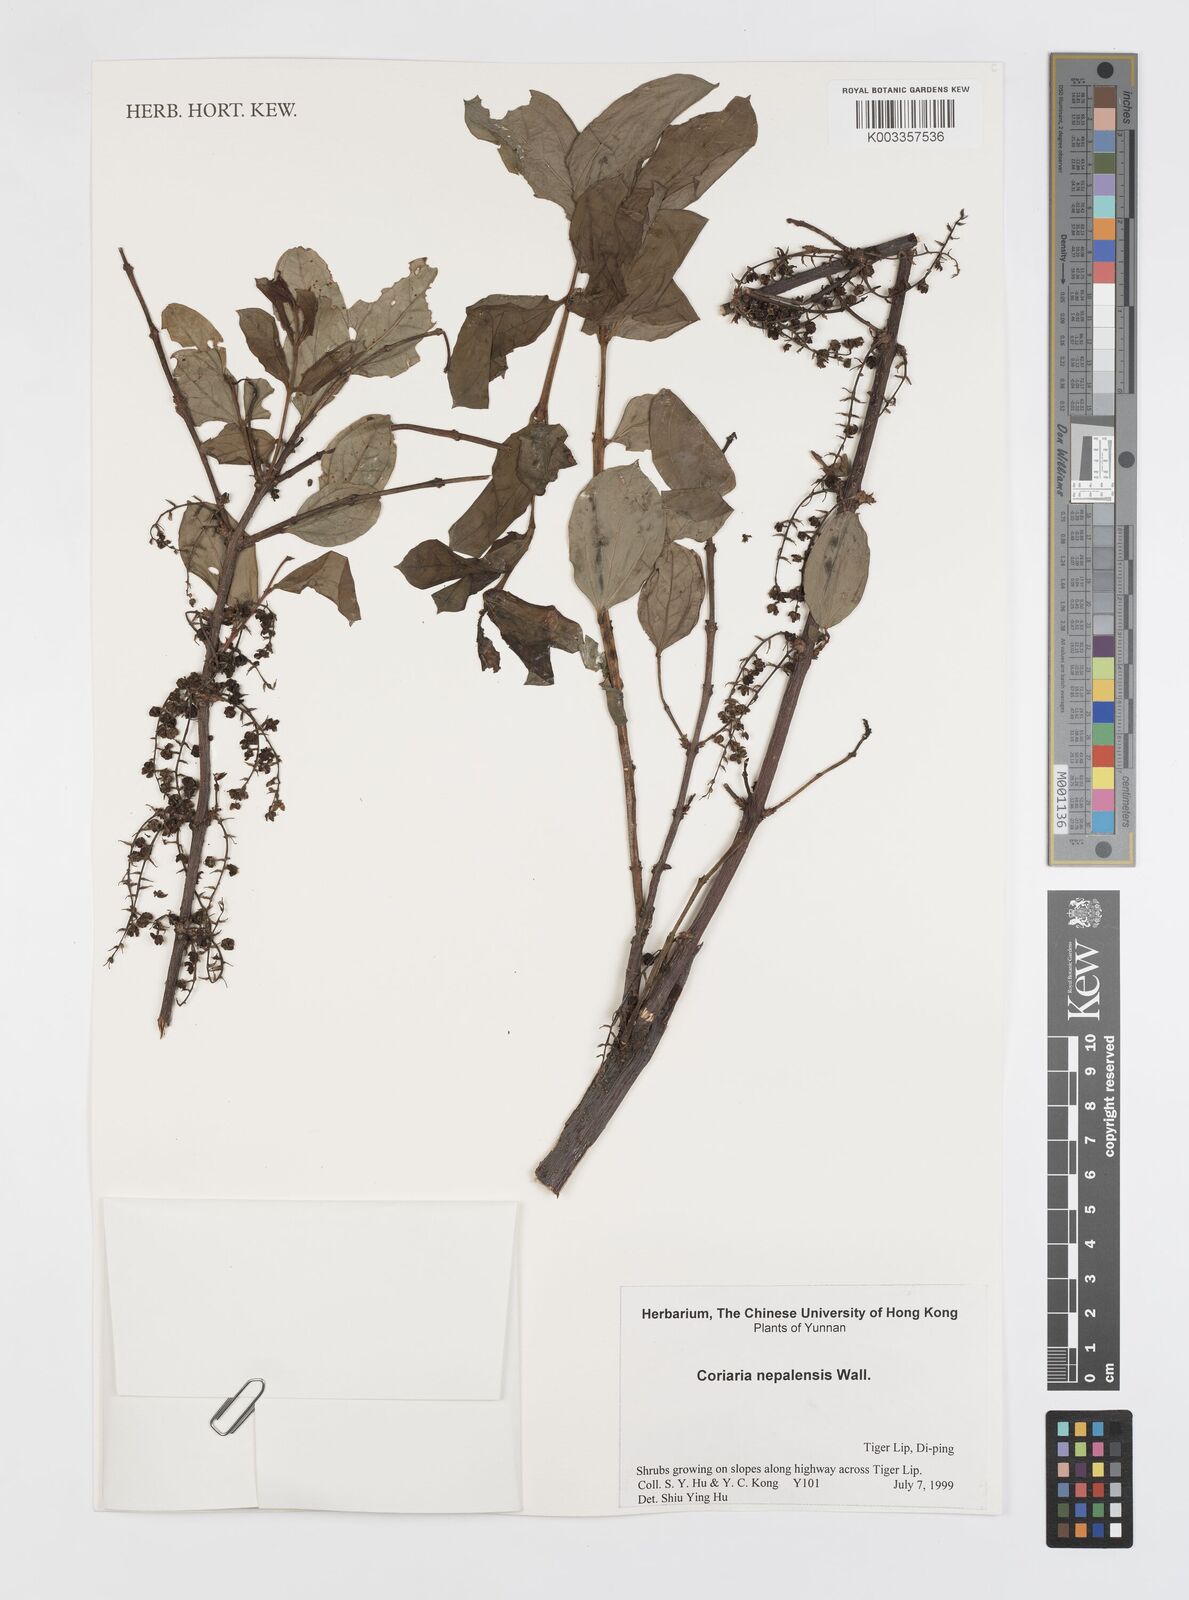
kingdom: Plantae
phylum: Tracheophyta
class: Magnoliopsida
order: Cucurbitales
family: Coriariaceae
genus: Coriaria
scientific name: Coriaria napalensis
